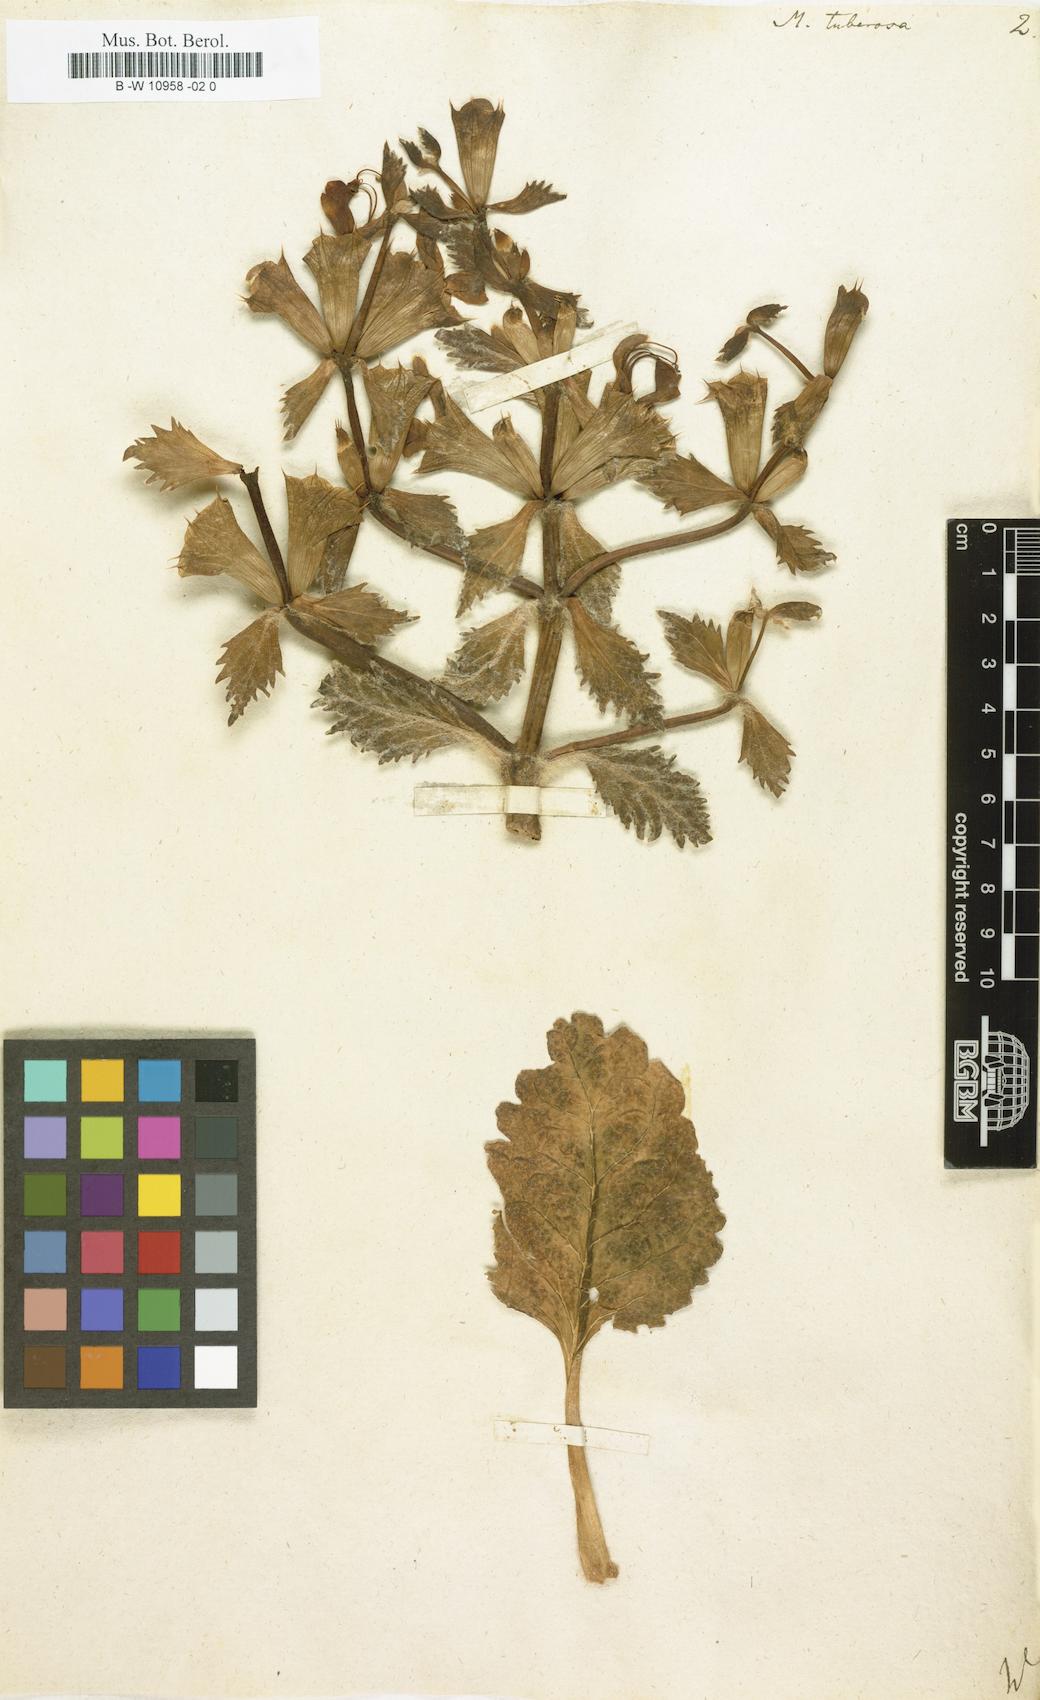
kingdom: Plantae
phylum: Tracheophyta
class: Magnoliopsida
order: Lamiales
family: Lamiaceae
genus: Moluccella
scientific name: Moluccella tuberosa
